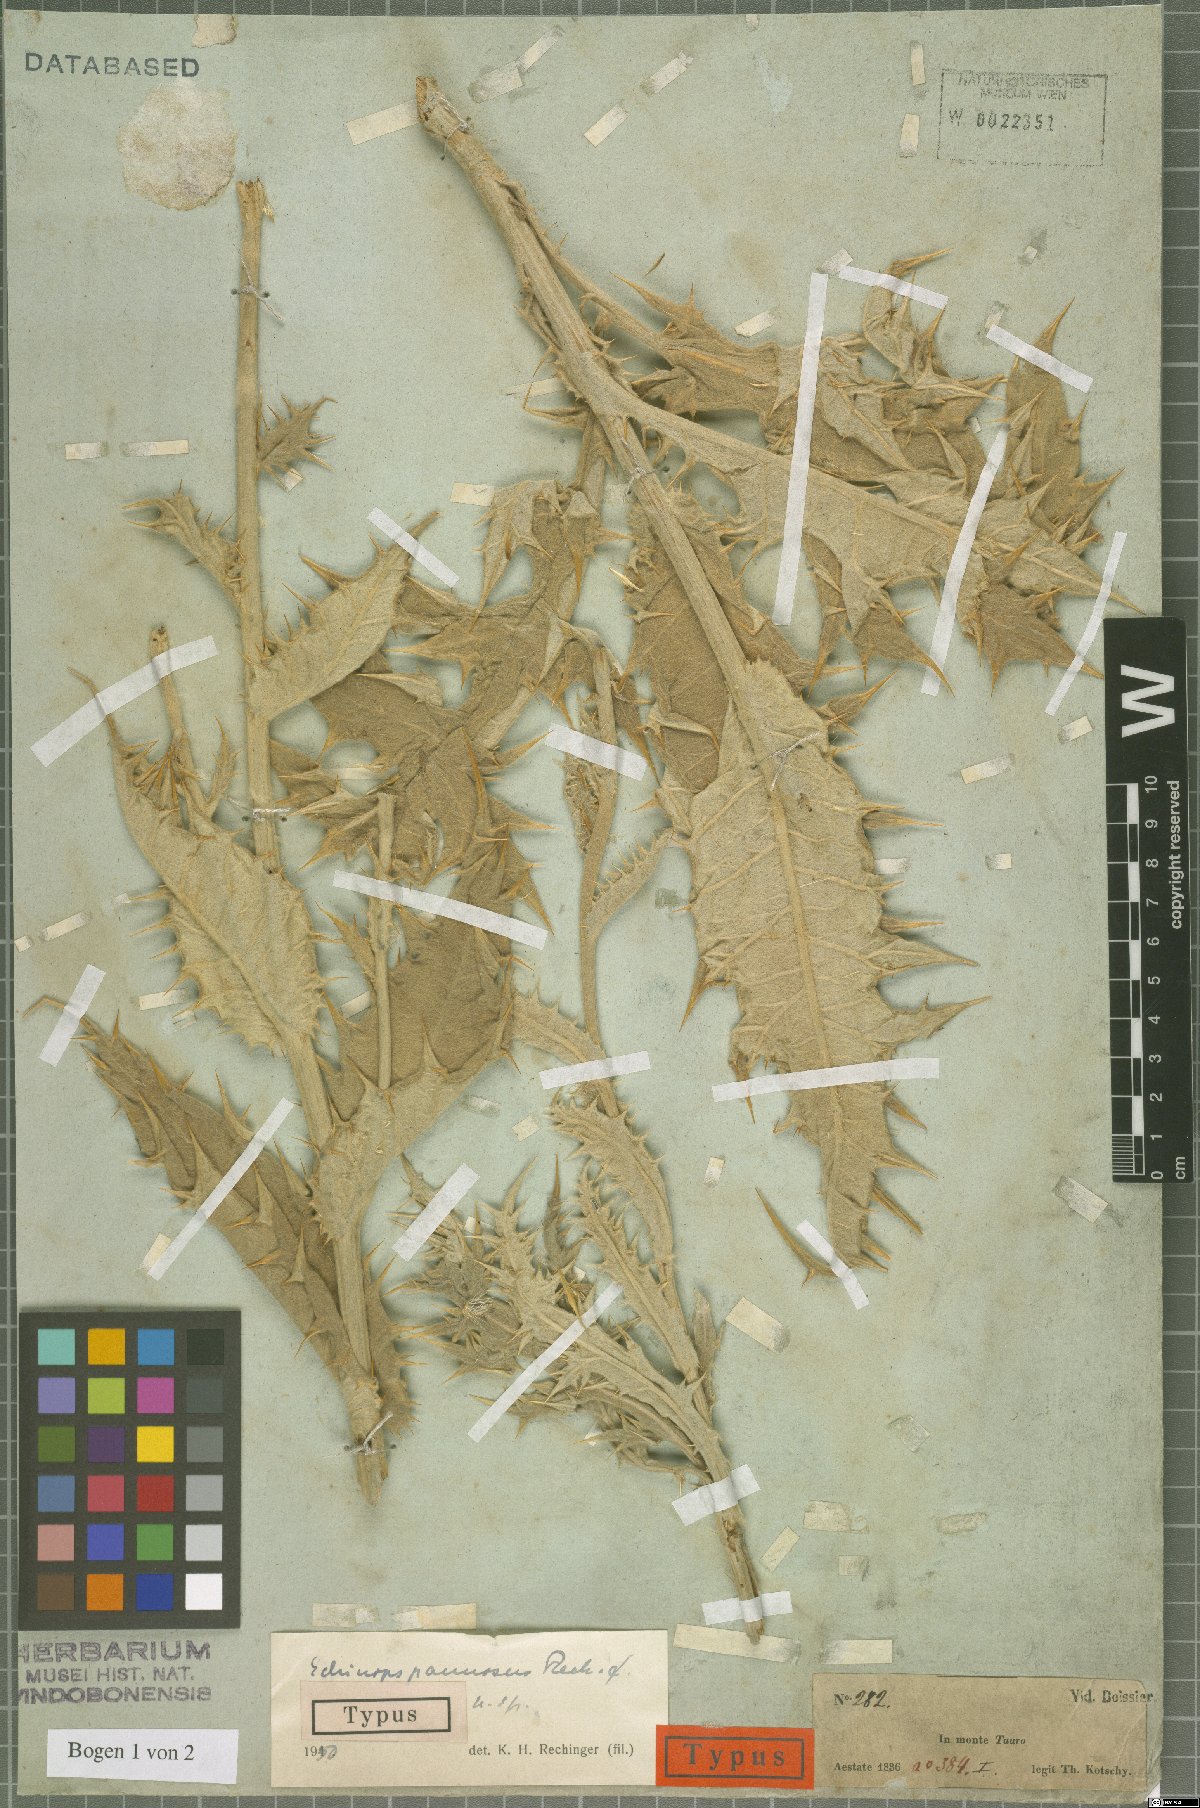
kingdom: Plantae
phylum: Tracheophyta
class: Magnoliopsida
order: Asterales
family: Asteraceae
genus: Echinops
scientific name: Echinops pannosus
